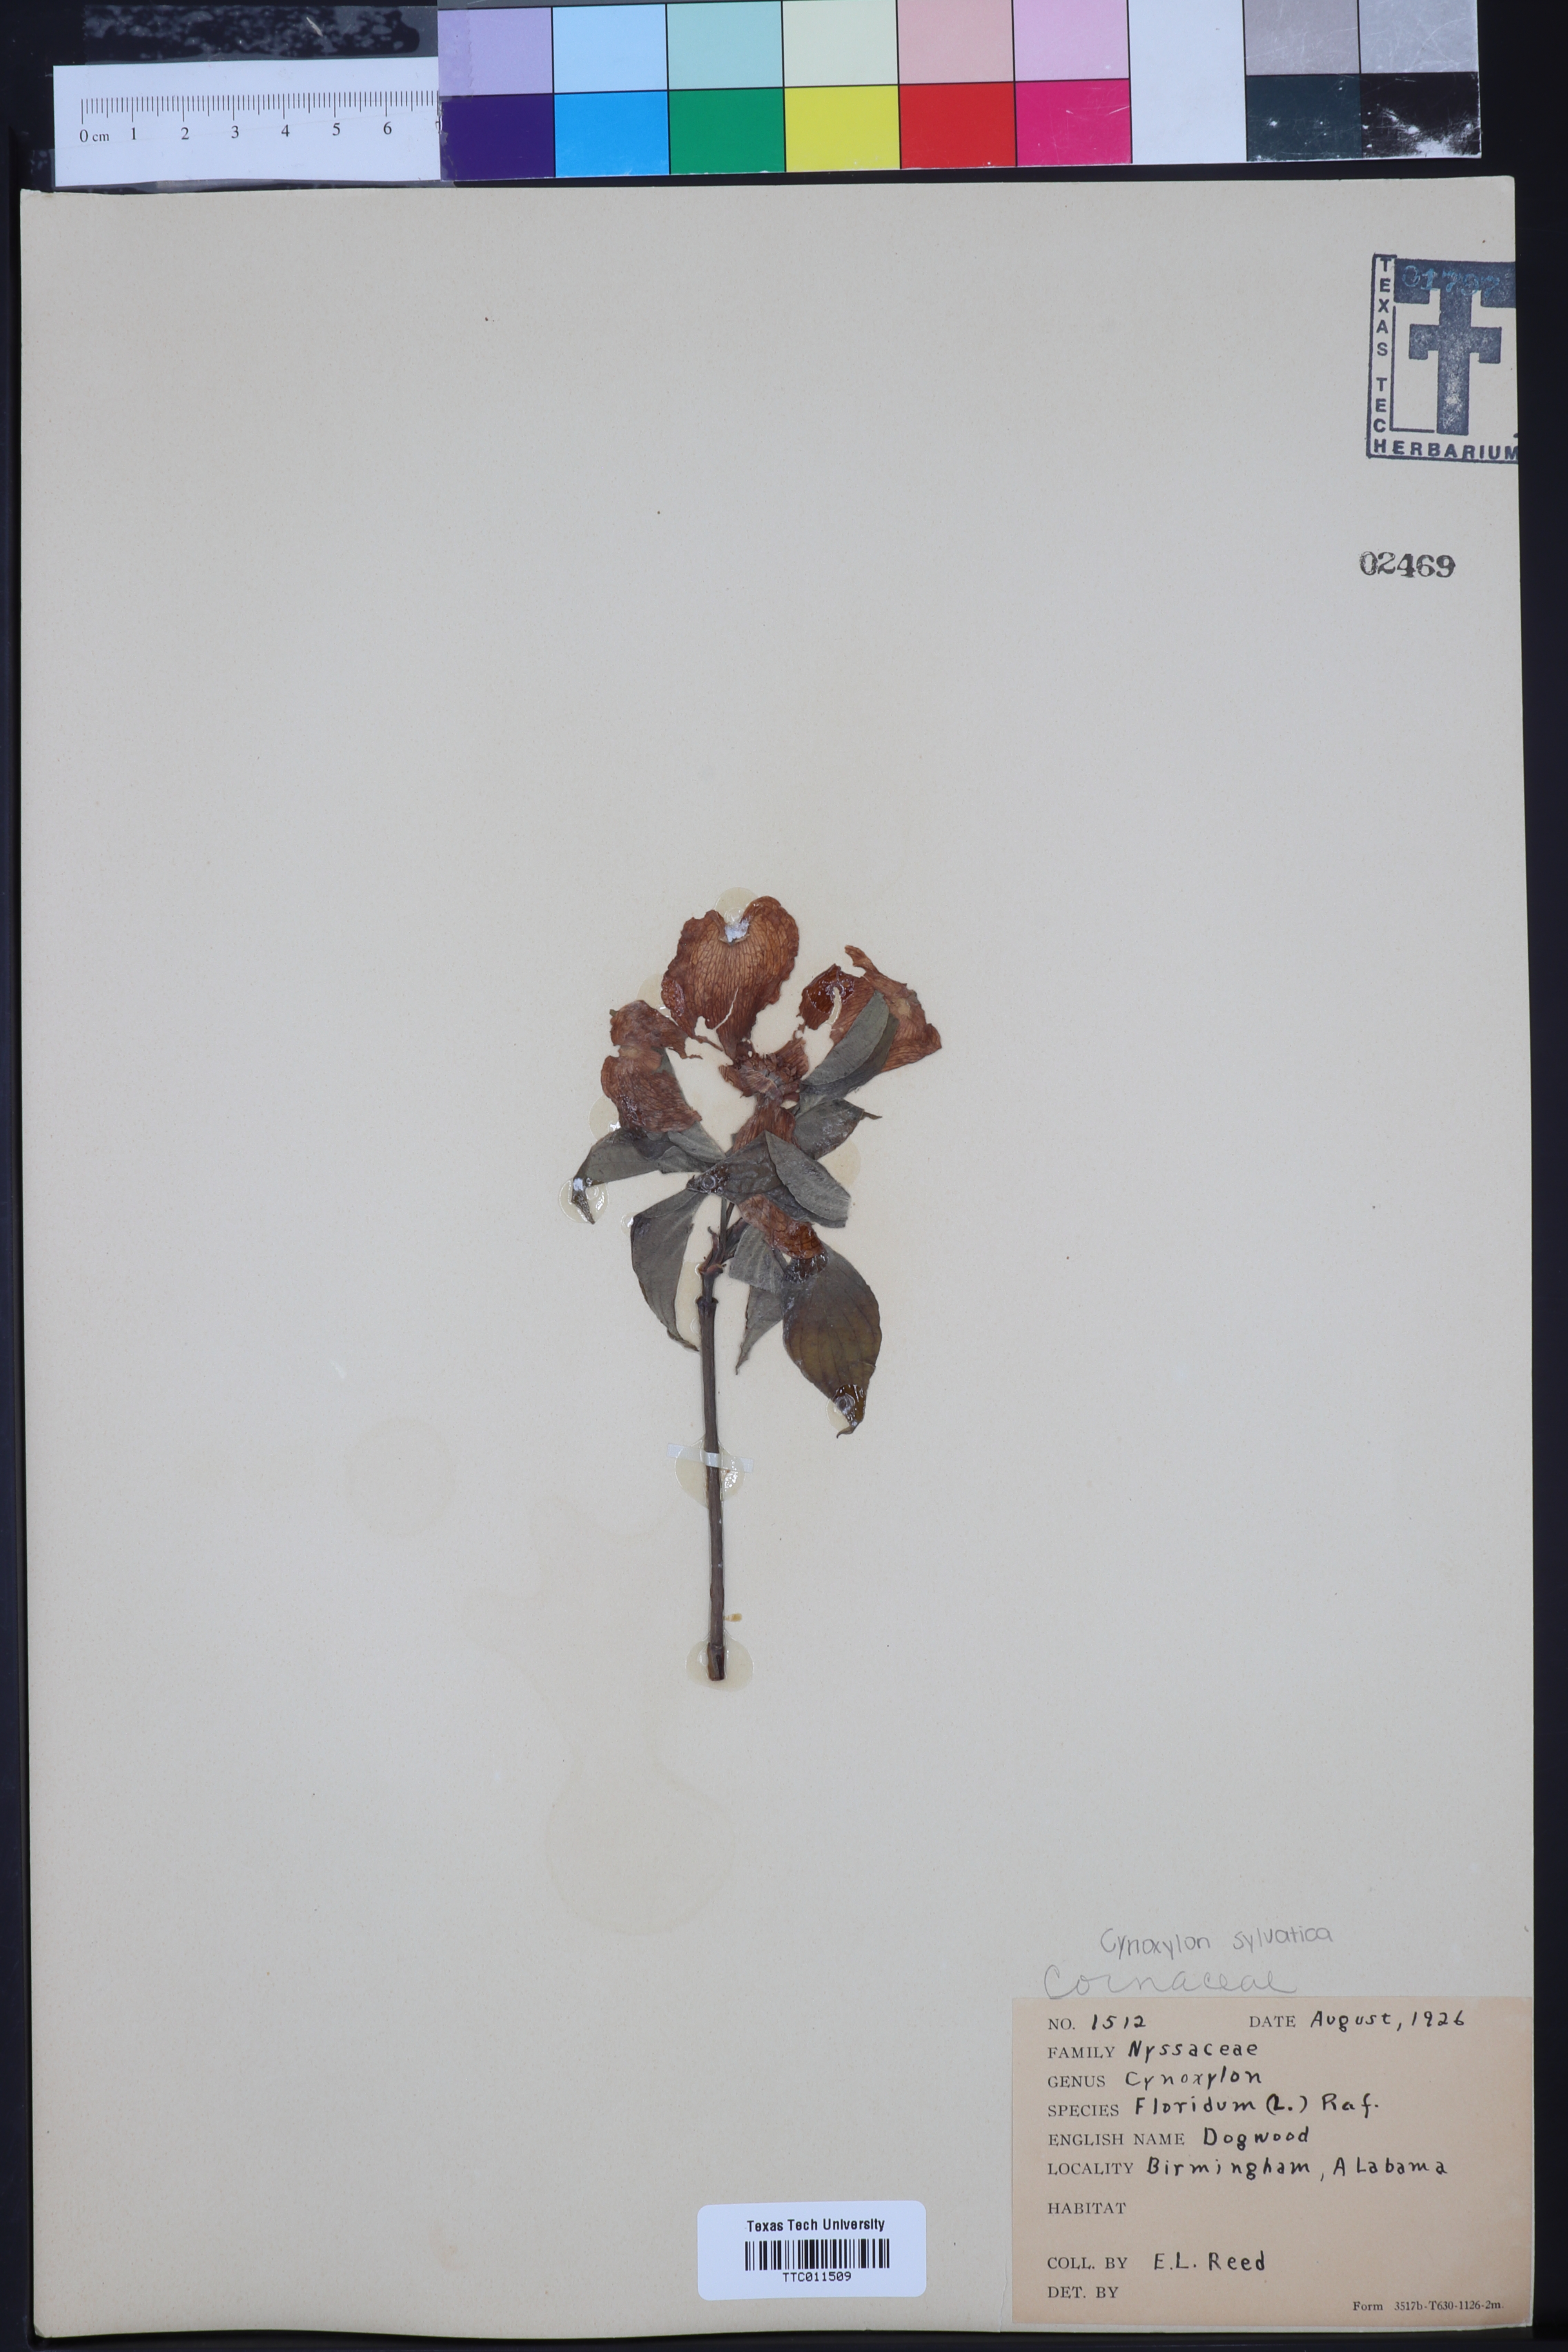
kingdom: Plantae
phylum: Tracheophyta
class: Magnoliopsida
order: Cornales
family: Cornaceae
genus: Cornus
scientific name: Cornus florida
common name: Flowering dogwood
